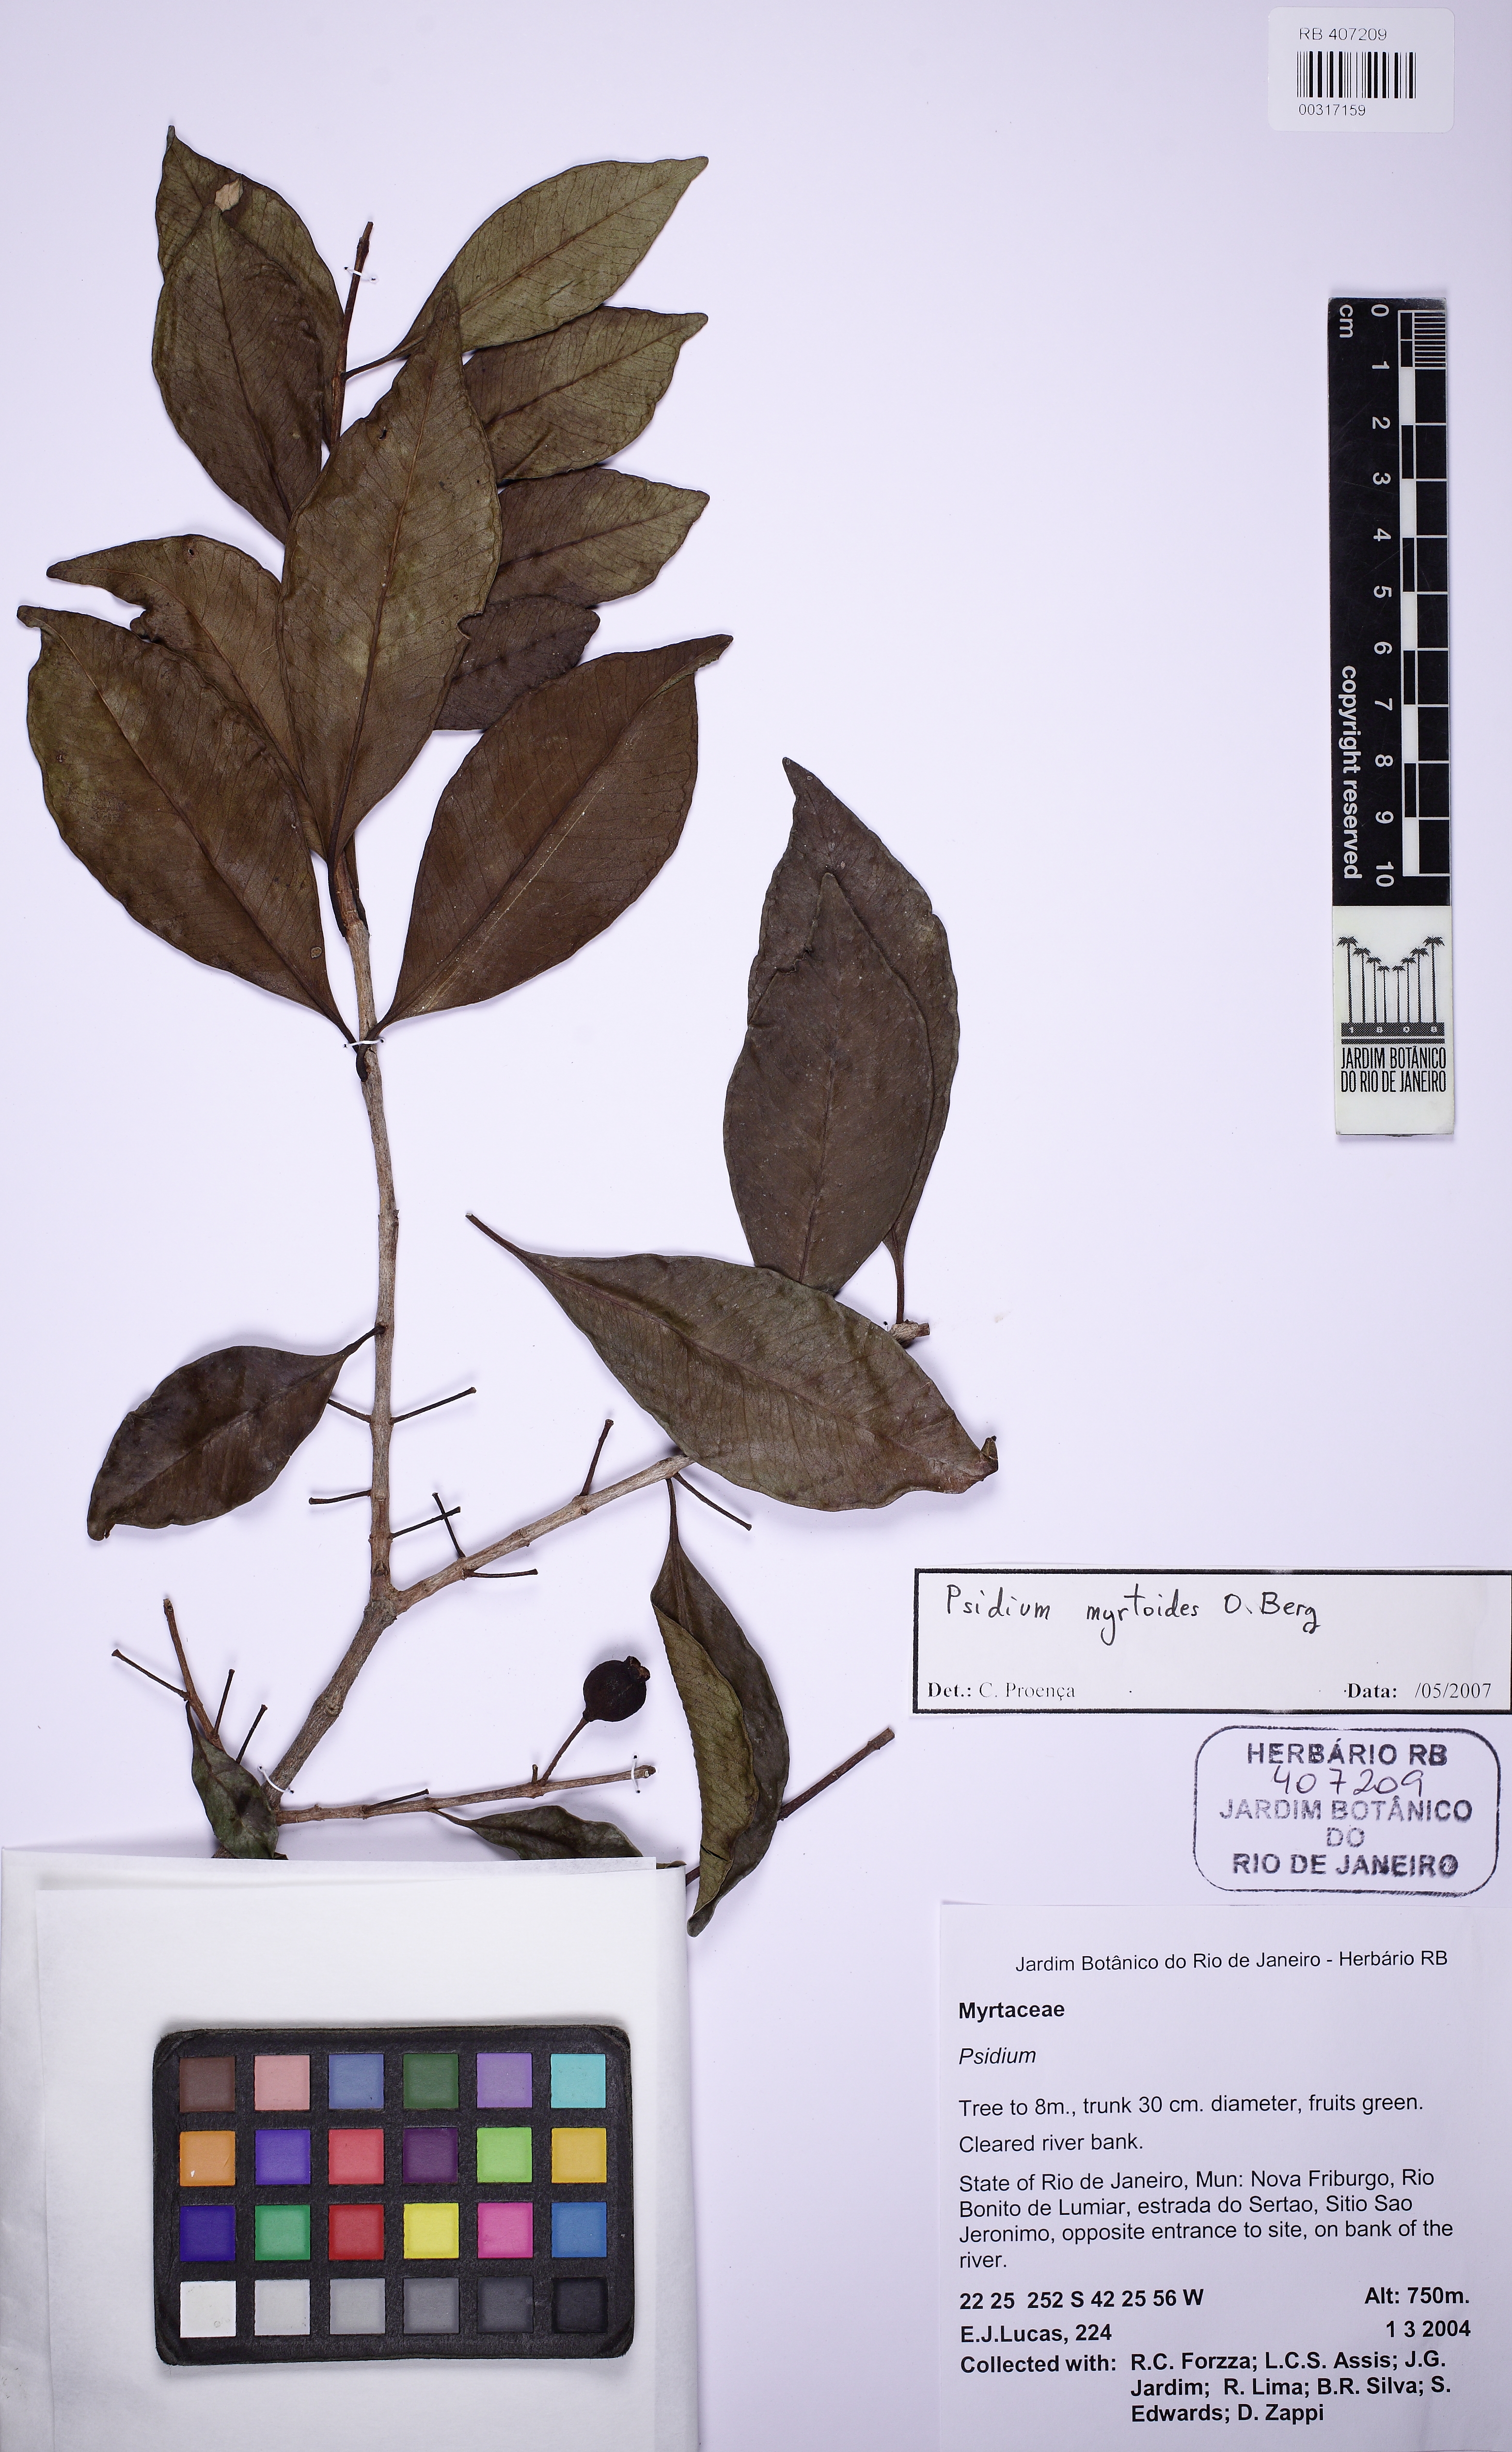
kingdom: Plantae
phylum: Tracheophyta
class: Magnoliopsida
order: Myrtales
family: Myrtaceae
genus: Psidium
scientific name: Psidium myrtoides
